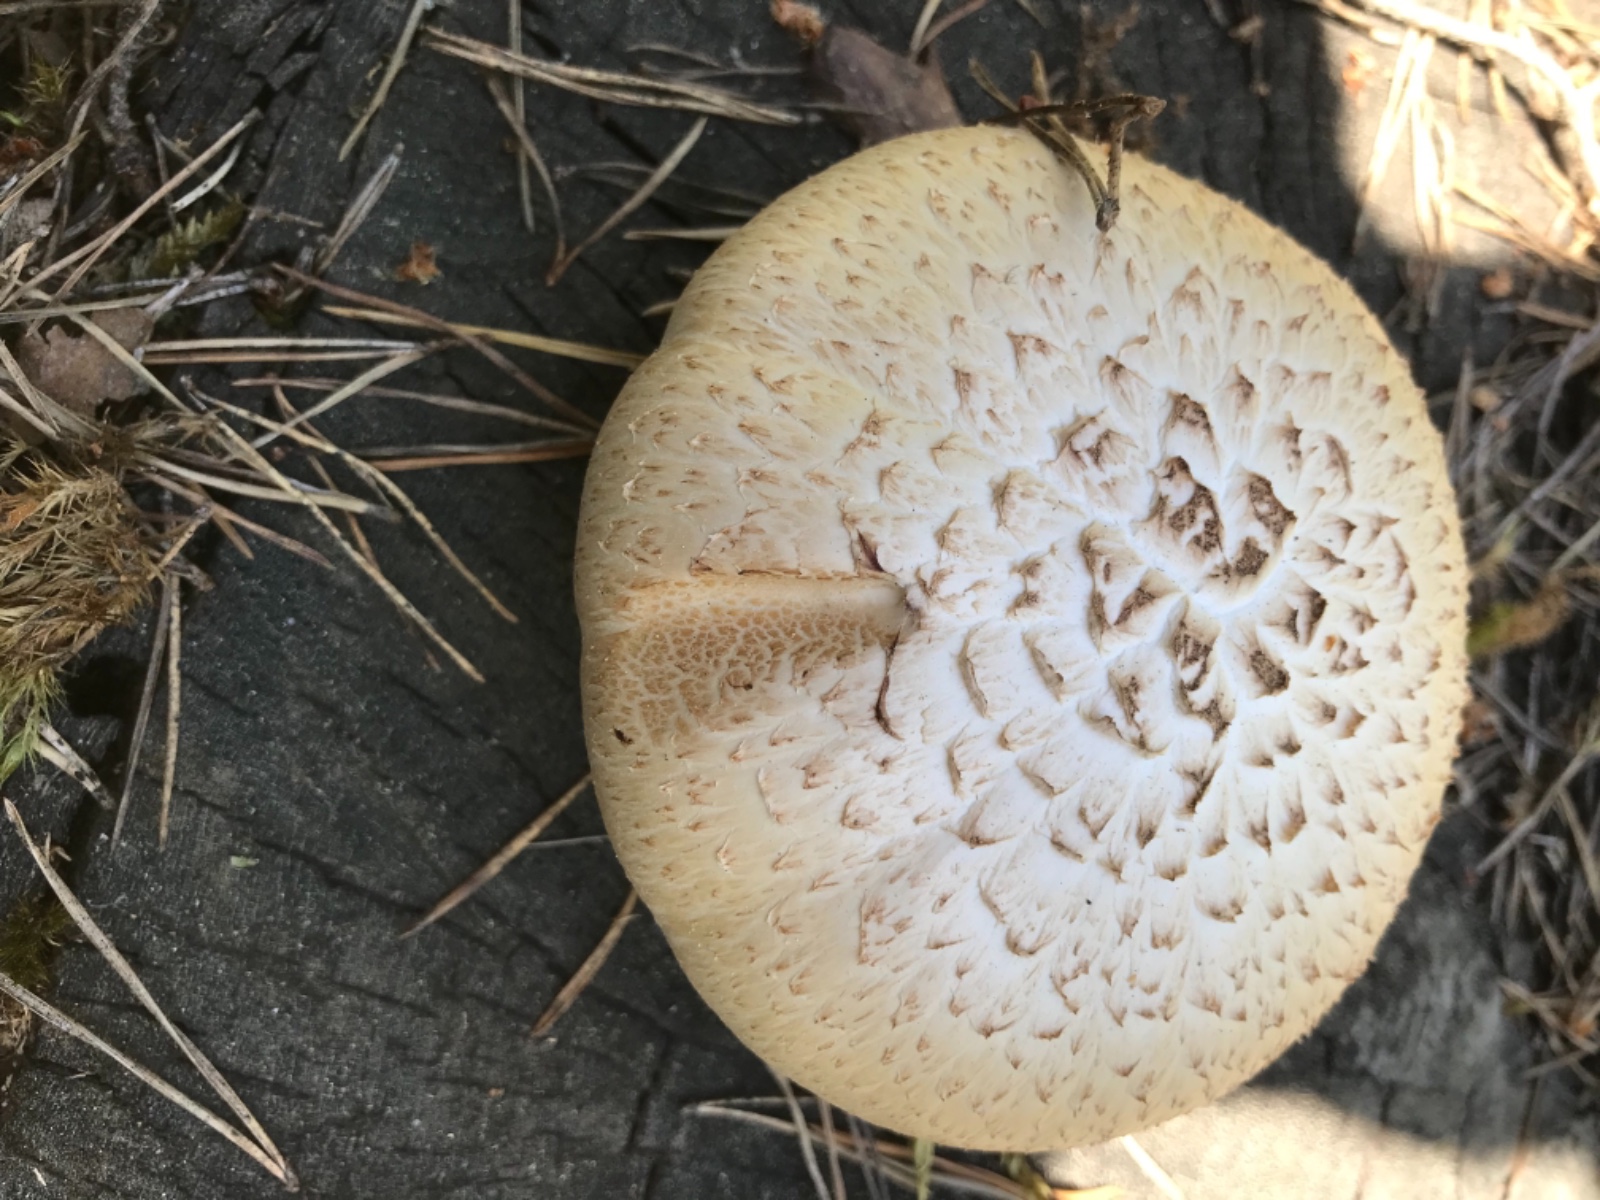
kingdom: Fungi
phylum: Basidiomycota
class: Agaricomycetes
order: Gloeophyllales
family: Gloeophyllaceae
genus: Neolentinus
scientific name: Neolentinus lepideus
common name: skællet sejhat
